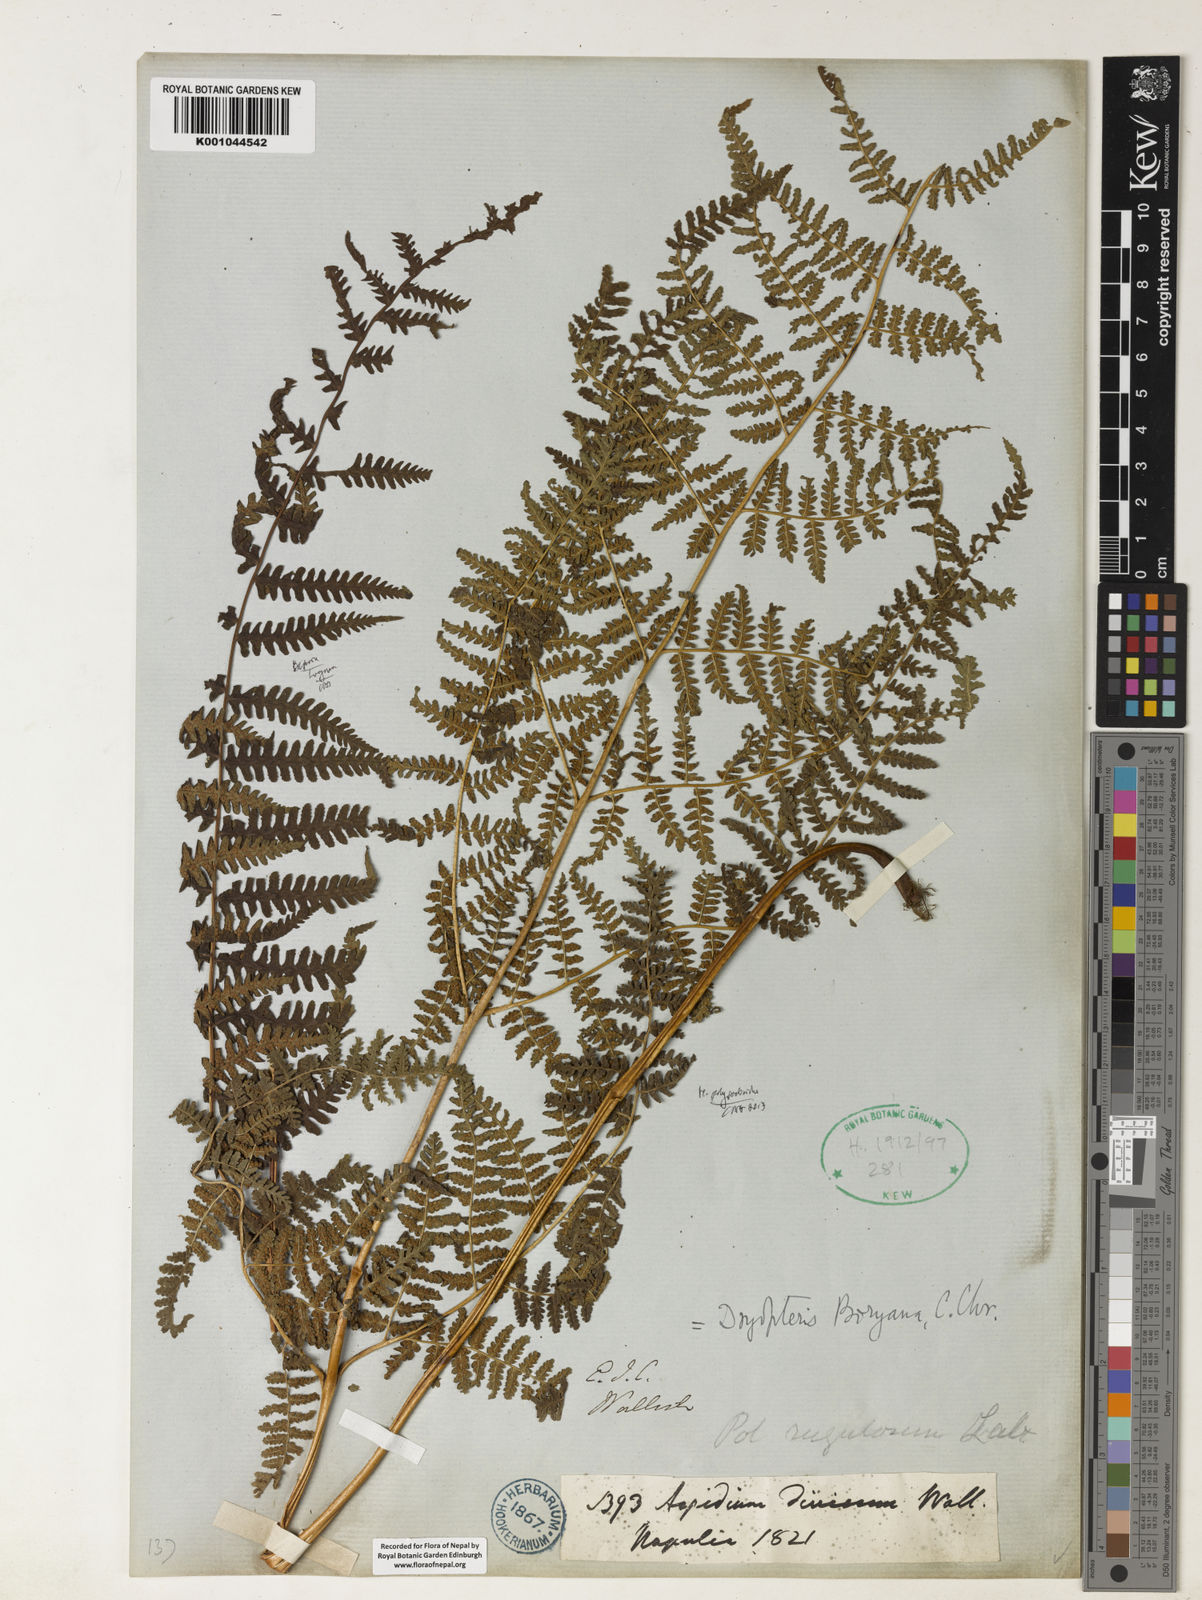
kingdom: Plantae
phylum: Tracheophyta
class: Polypodiopsida
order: Polypodiales
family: Dennstaedtiaceae
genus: Hypolepis
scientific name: Hypolepis polypodioides
